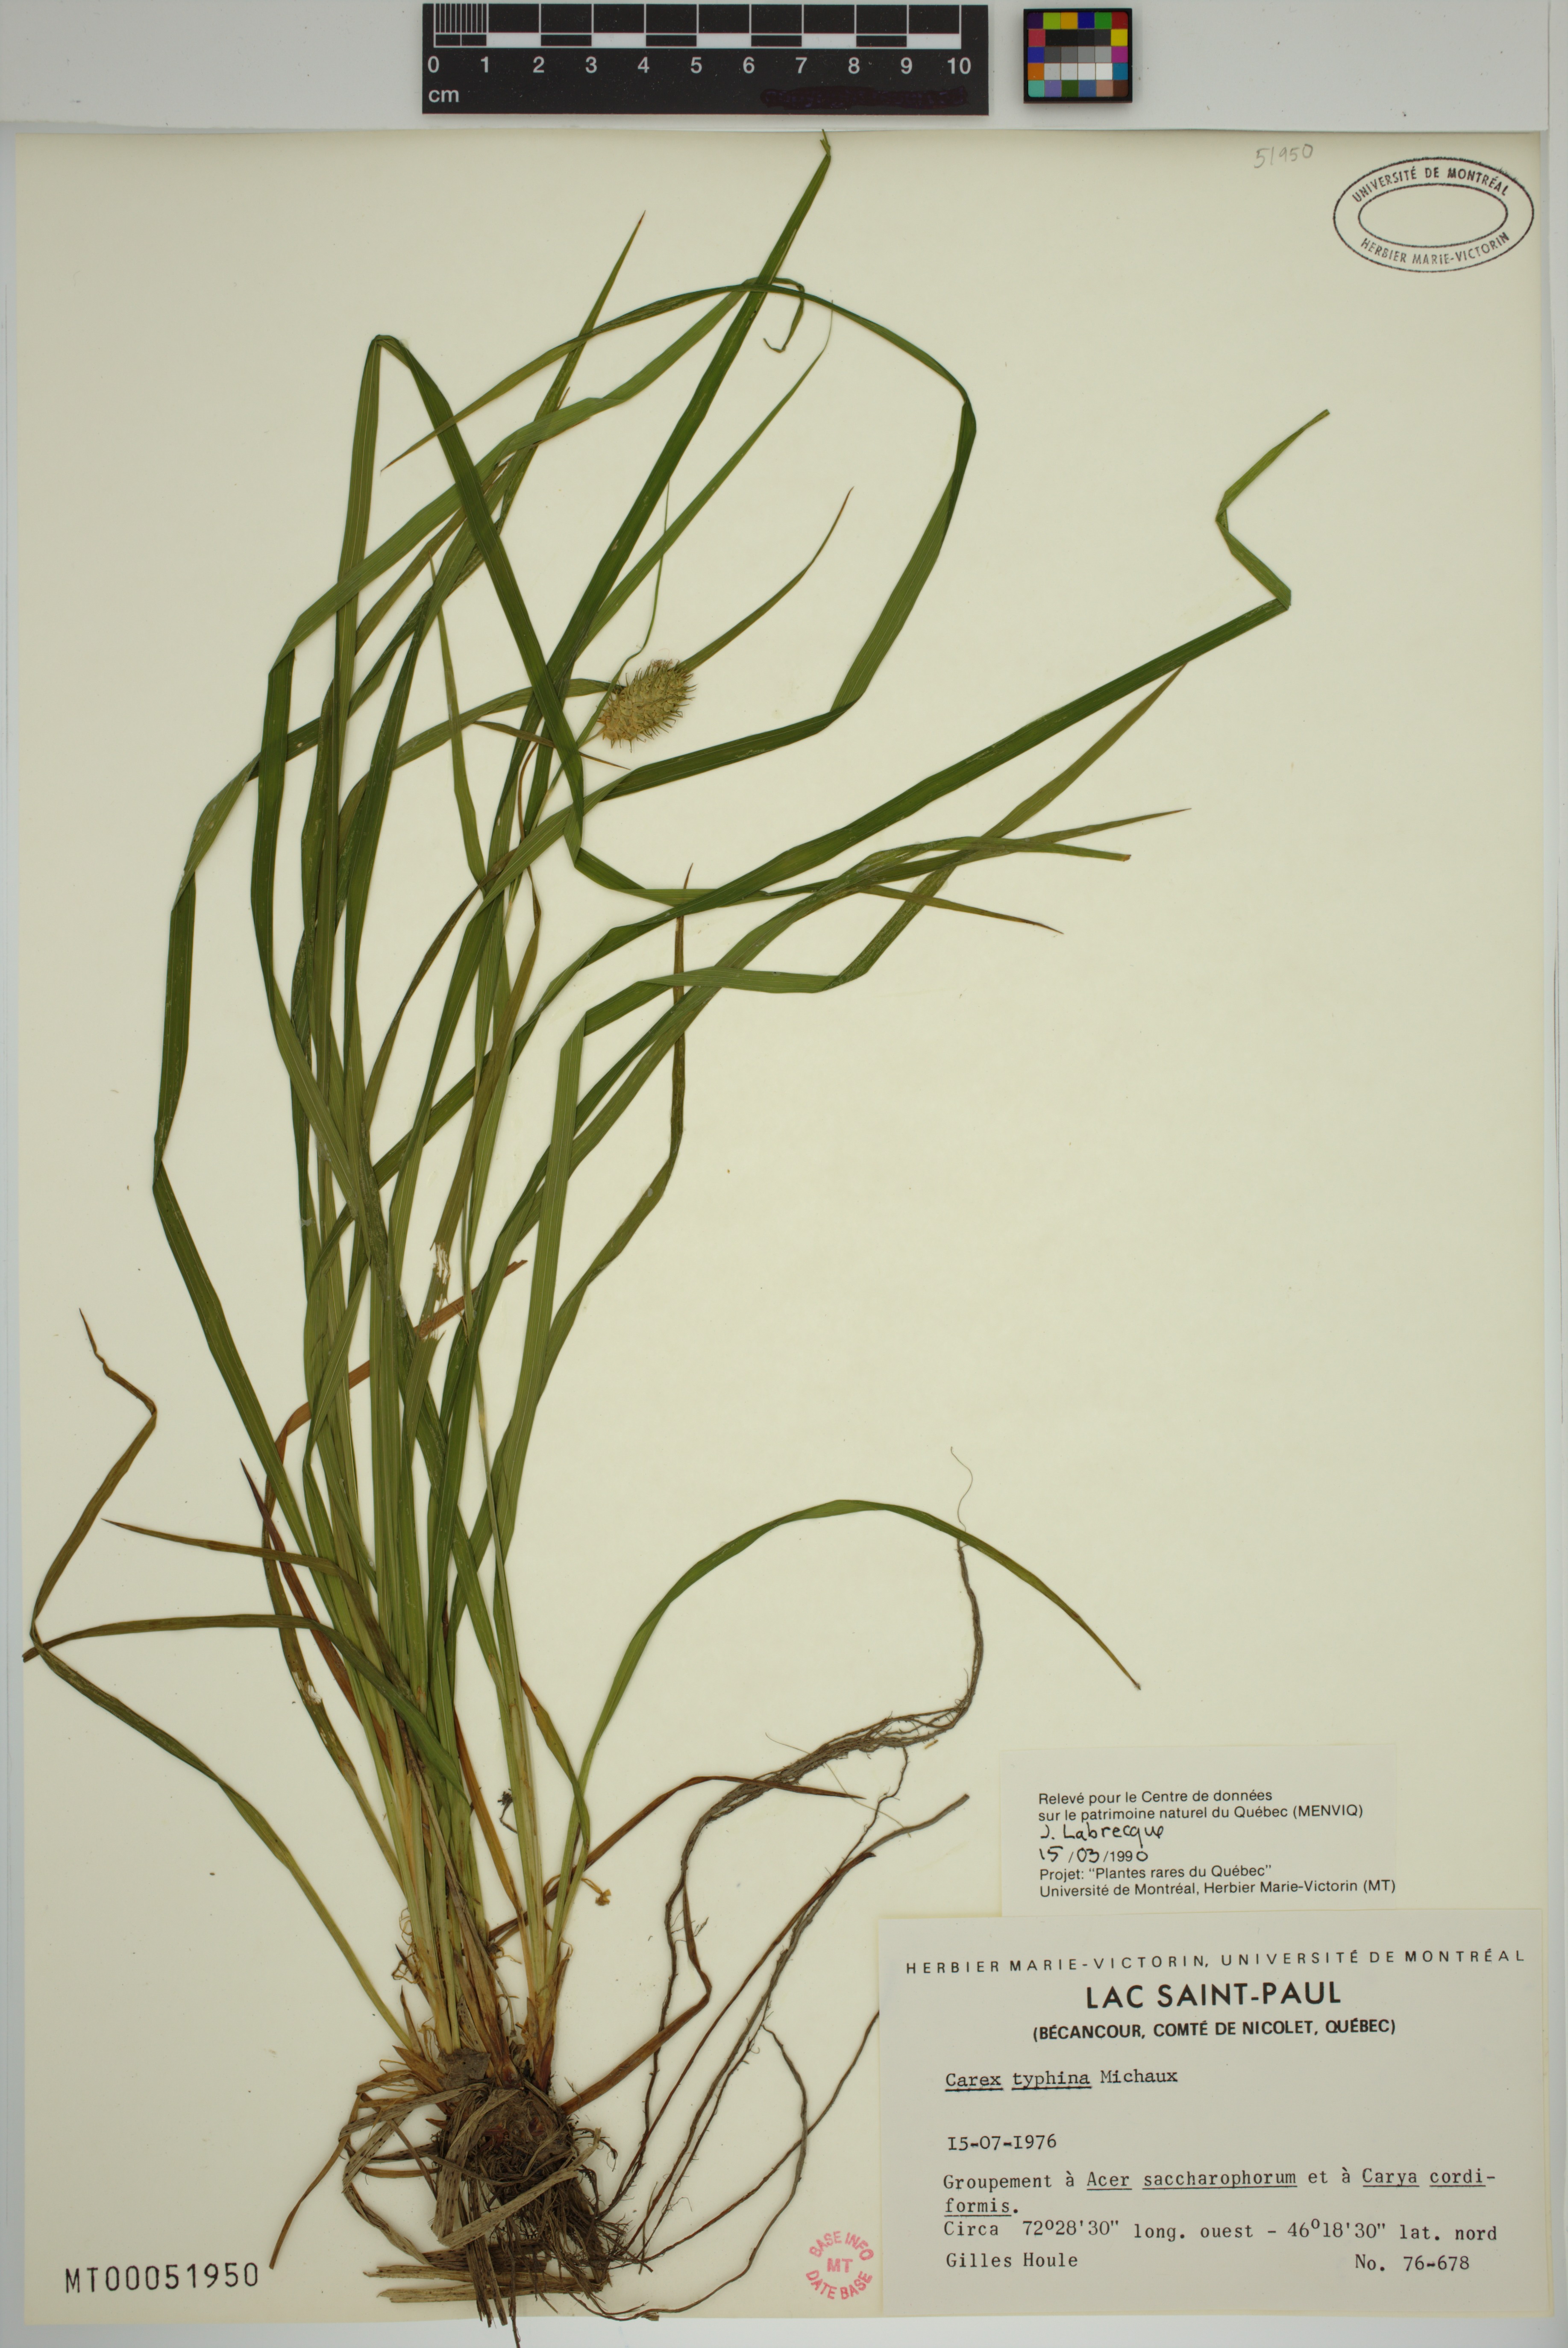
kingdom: Plantae
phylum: Tracheophyta
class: Liliopsida
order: Poales
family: Cyperaceae
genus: Carex
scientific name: Carex typhina
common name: Cattail sedge
